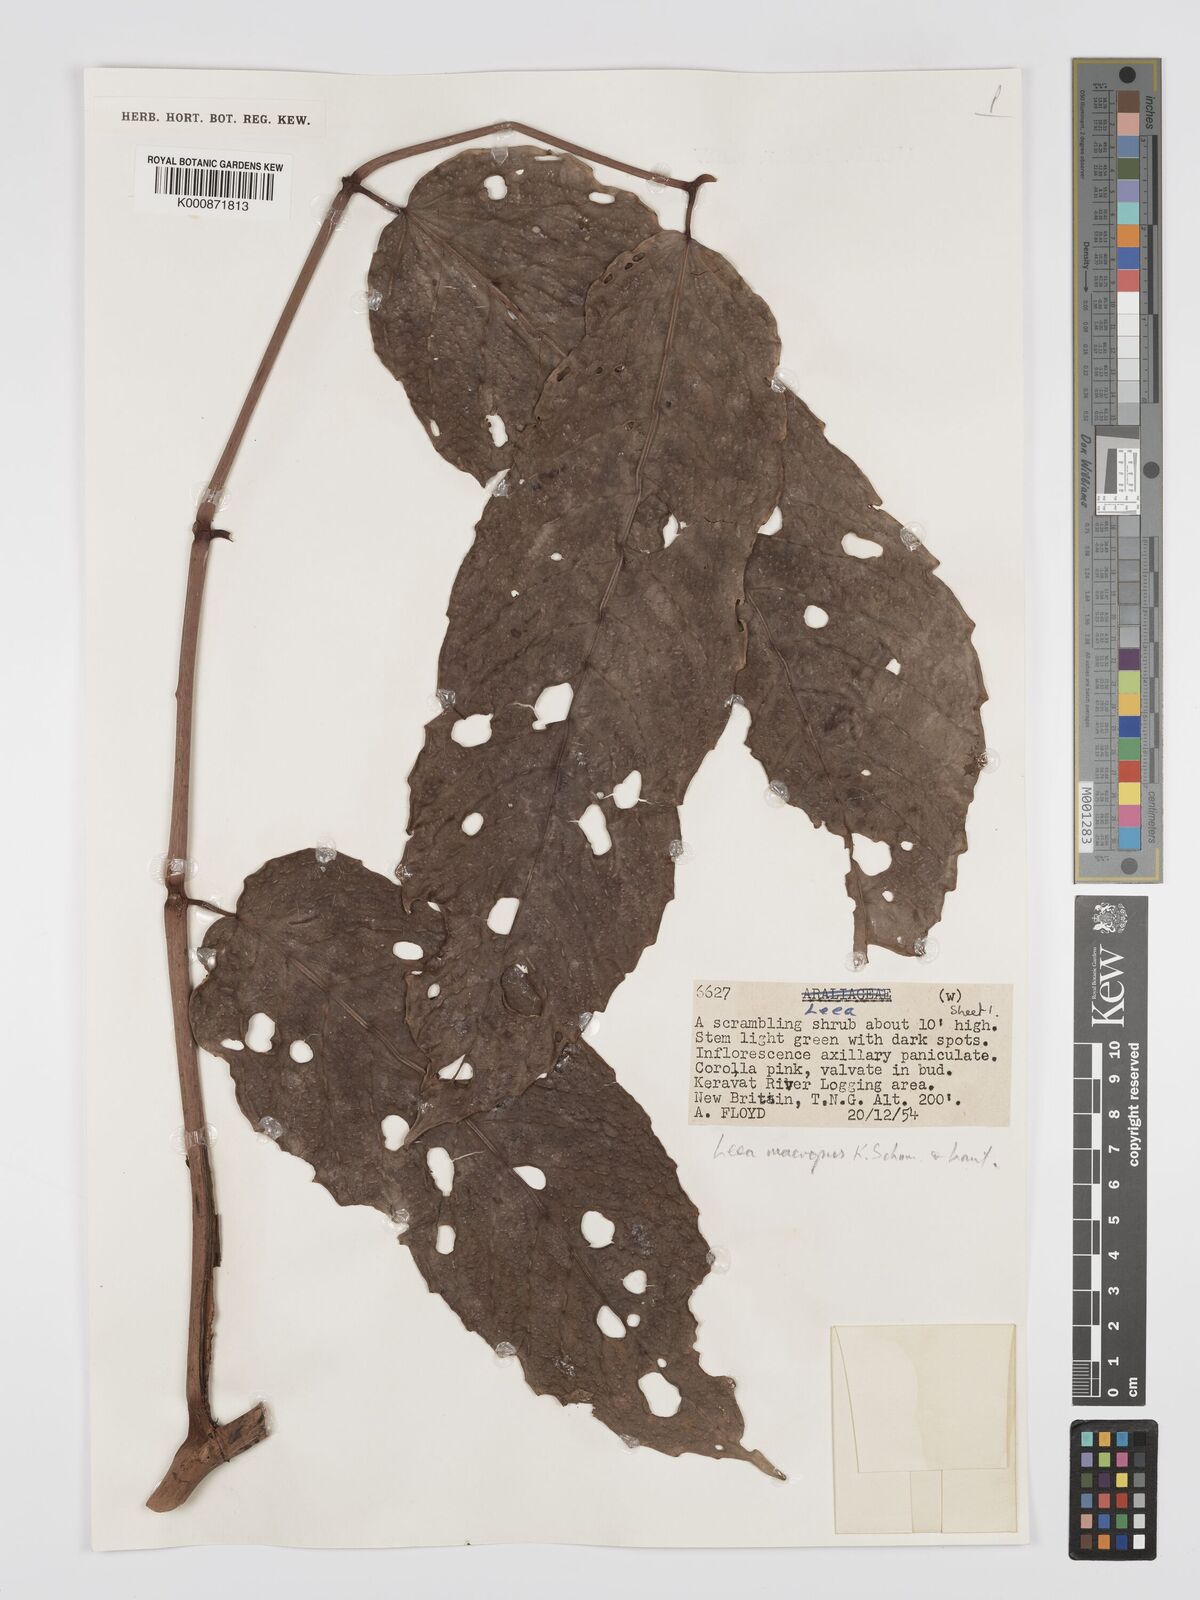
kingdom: Plantae
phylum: Tracheophyta
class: Magnoliopsida
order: Vitales
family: Vitaceae
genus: Leea
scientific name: Leea macropus
